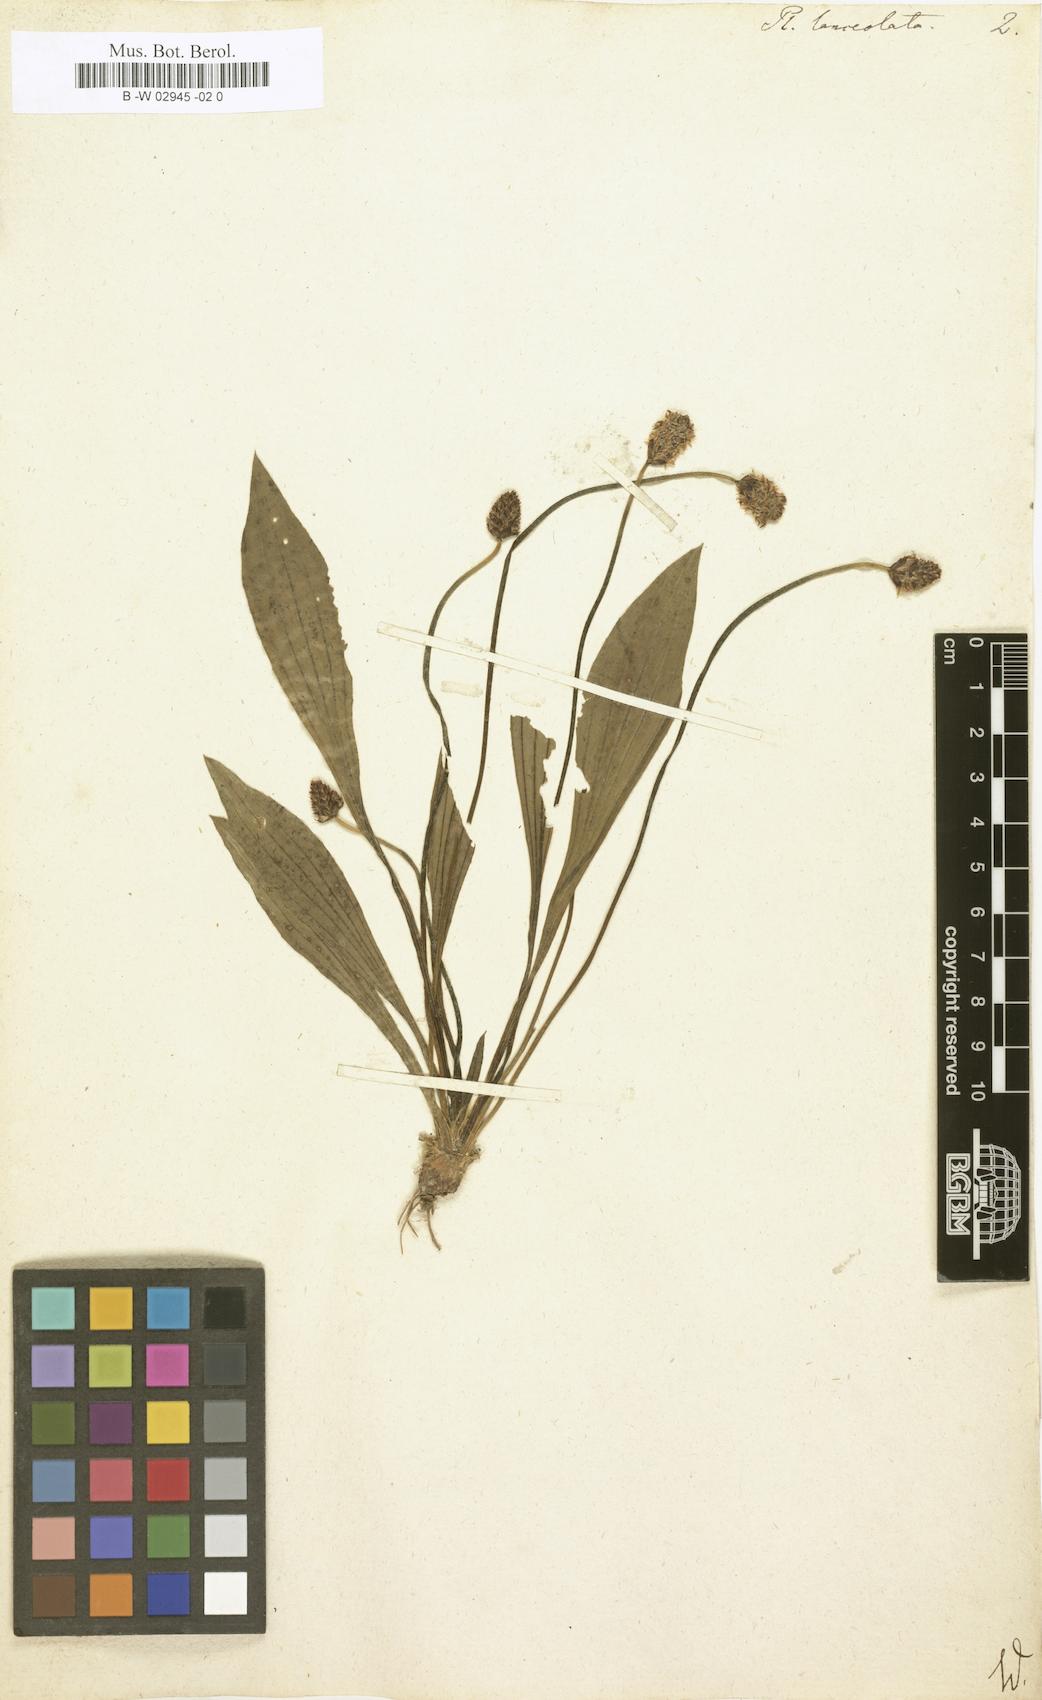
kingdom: Plantae
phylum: Tracheophyta
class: Magnoliopsida
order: Lamiales
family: Plantaginaceae
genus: Plantago
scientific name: Plantago lanceolata
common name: Ribwort plantain
